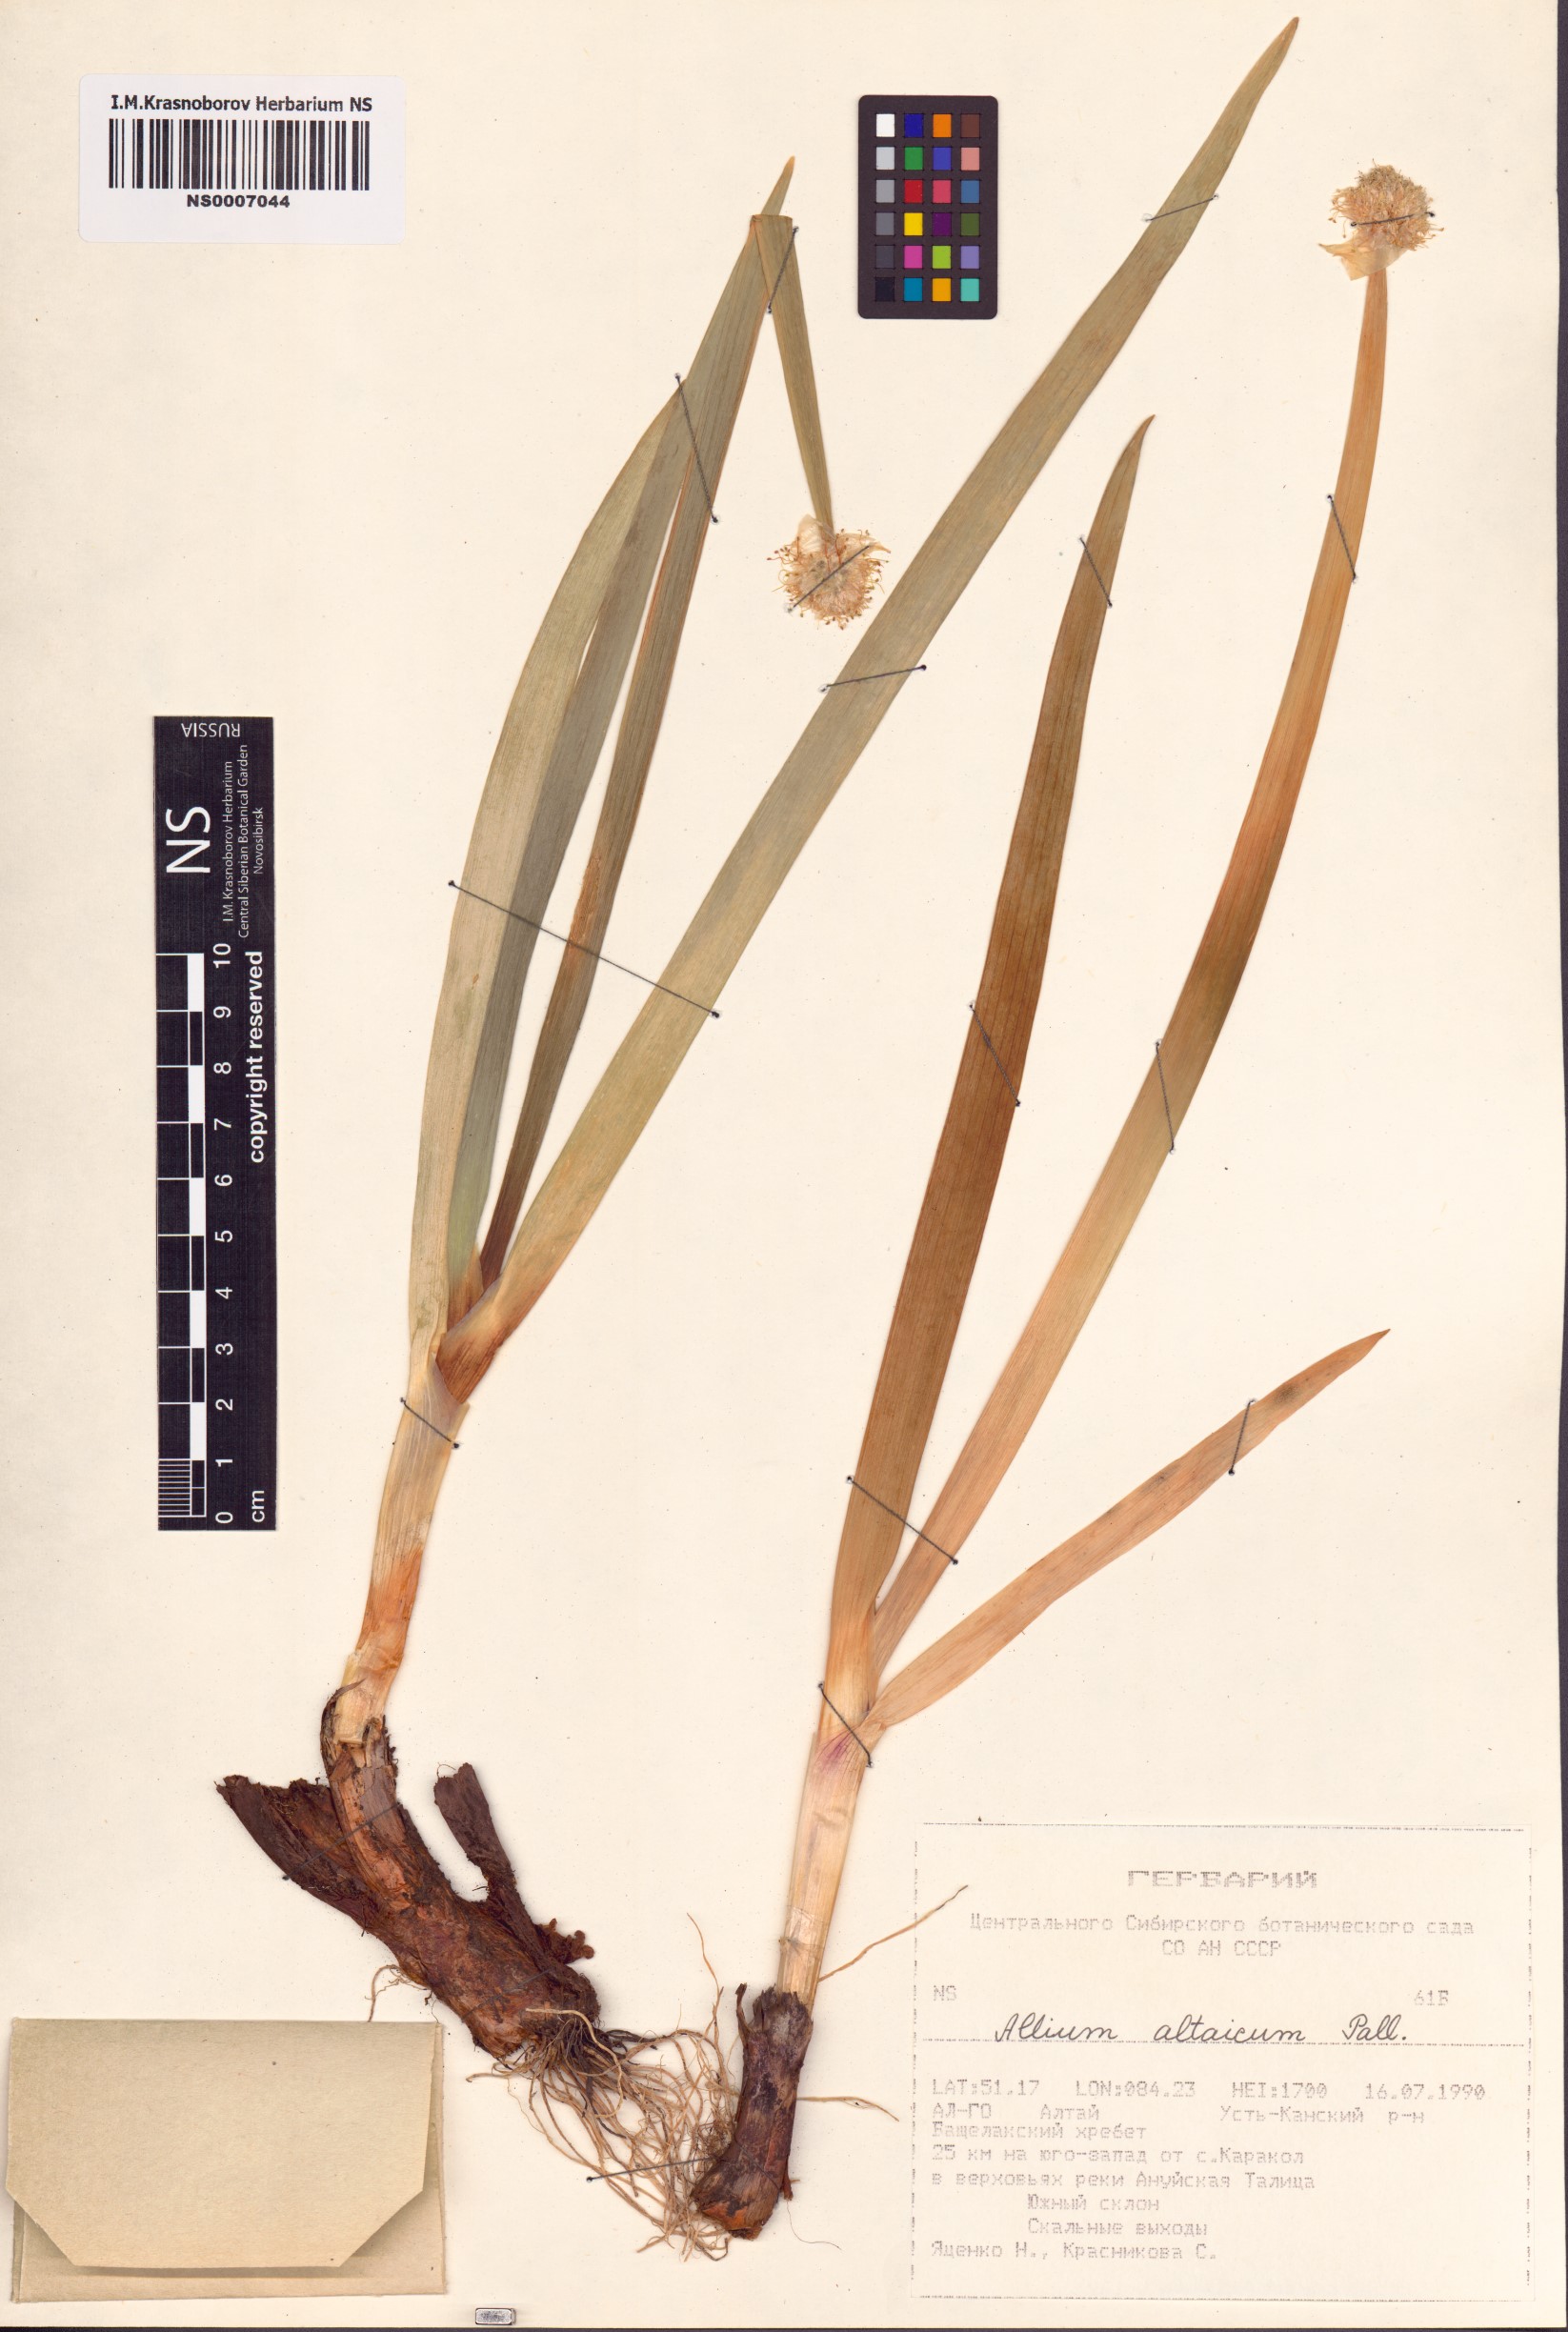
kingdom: Plantae
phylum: Tracheophyta
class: Liliopsida
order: Asparagales
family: Amaryllidaceae
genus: Allium
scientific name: Allium altaicum
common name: Altai onion
